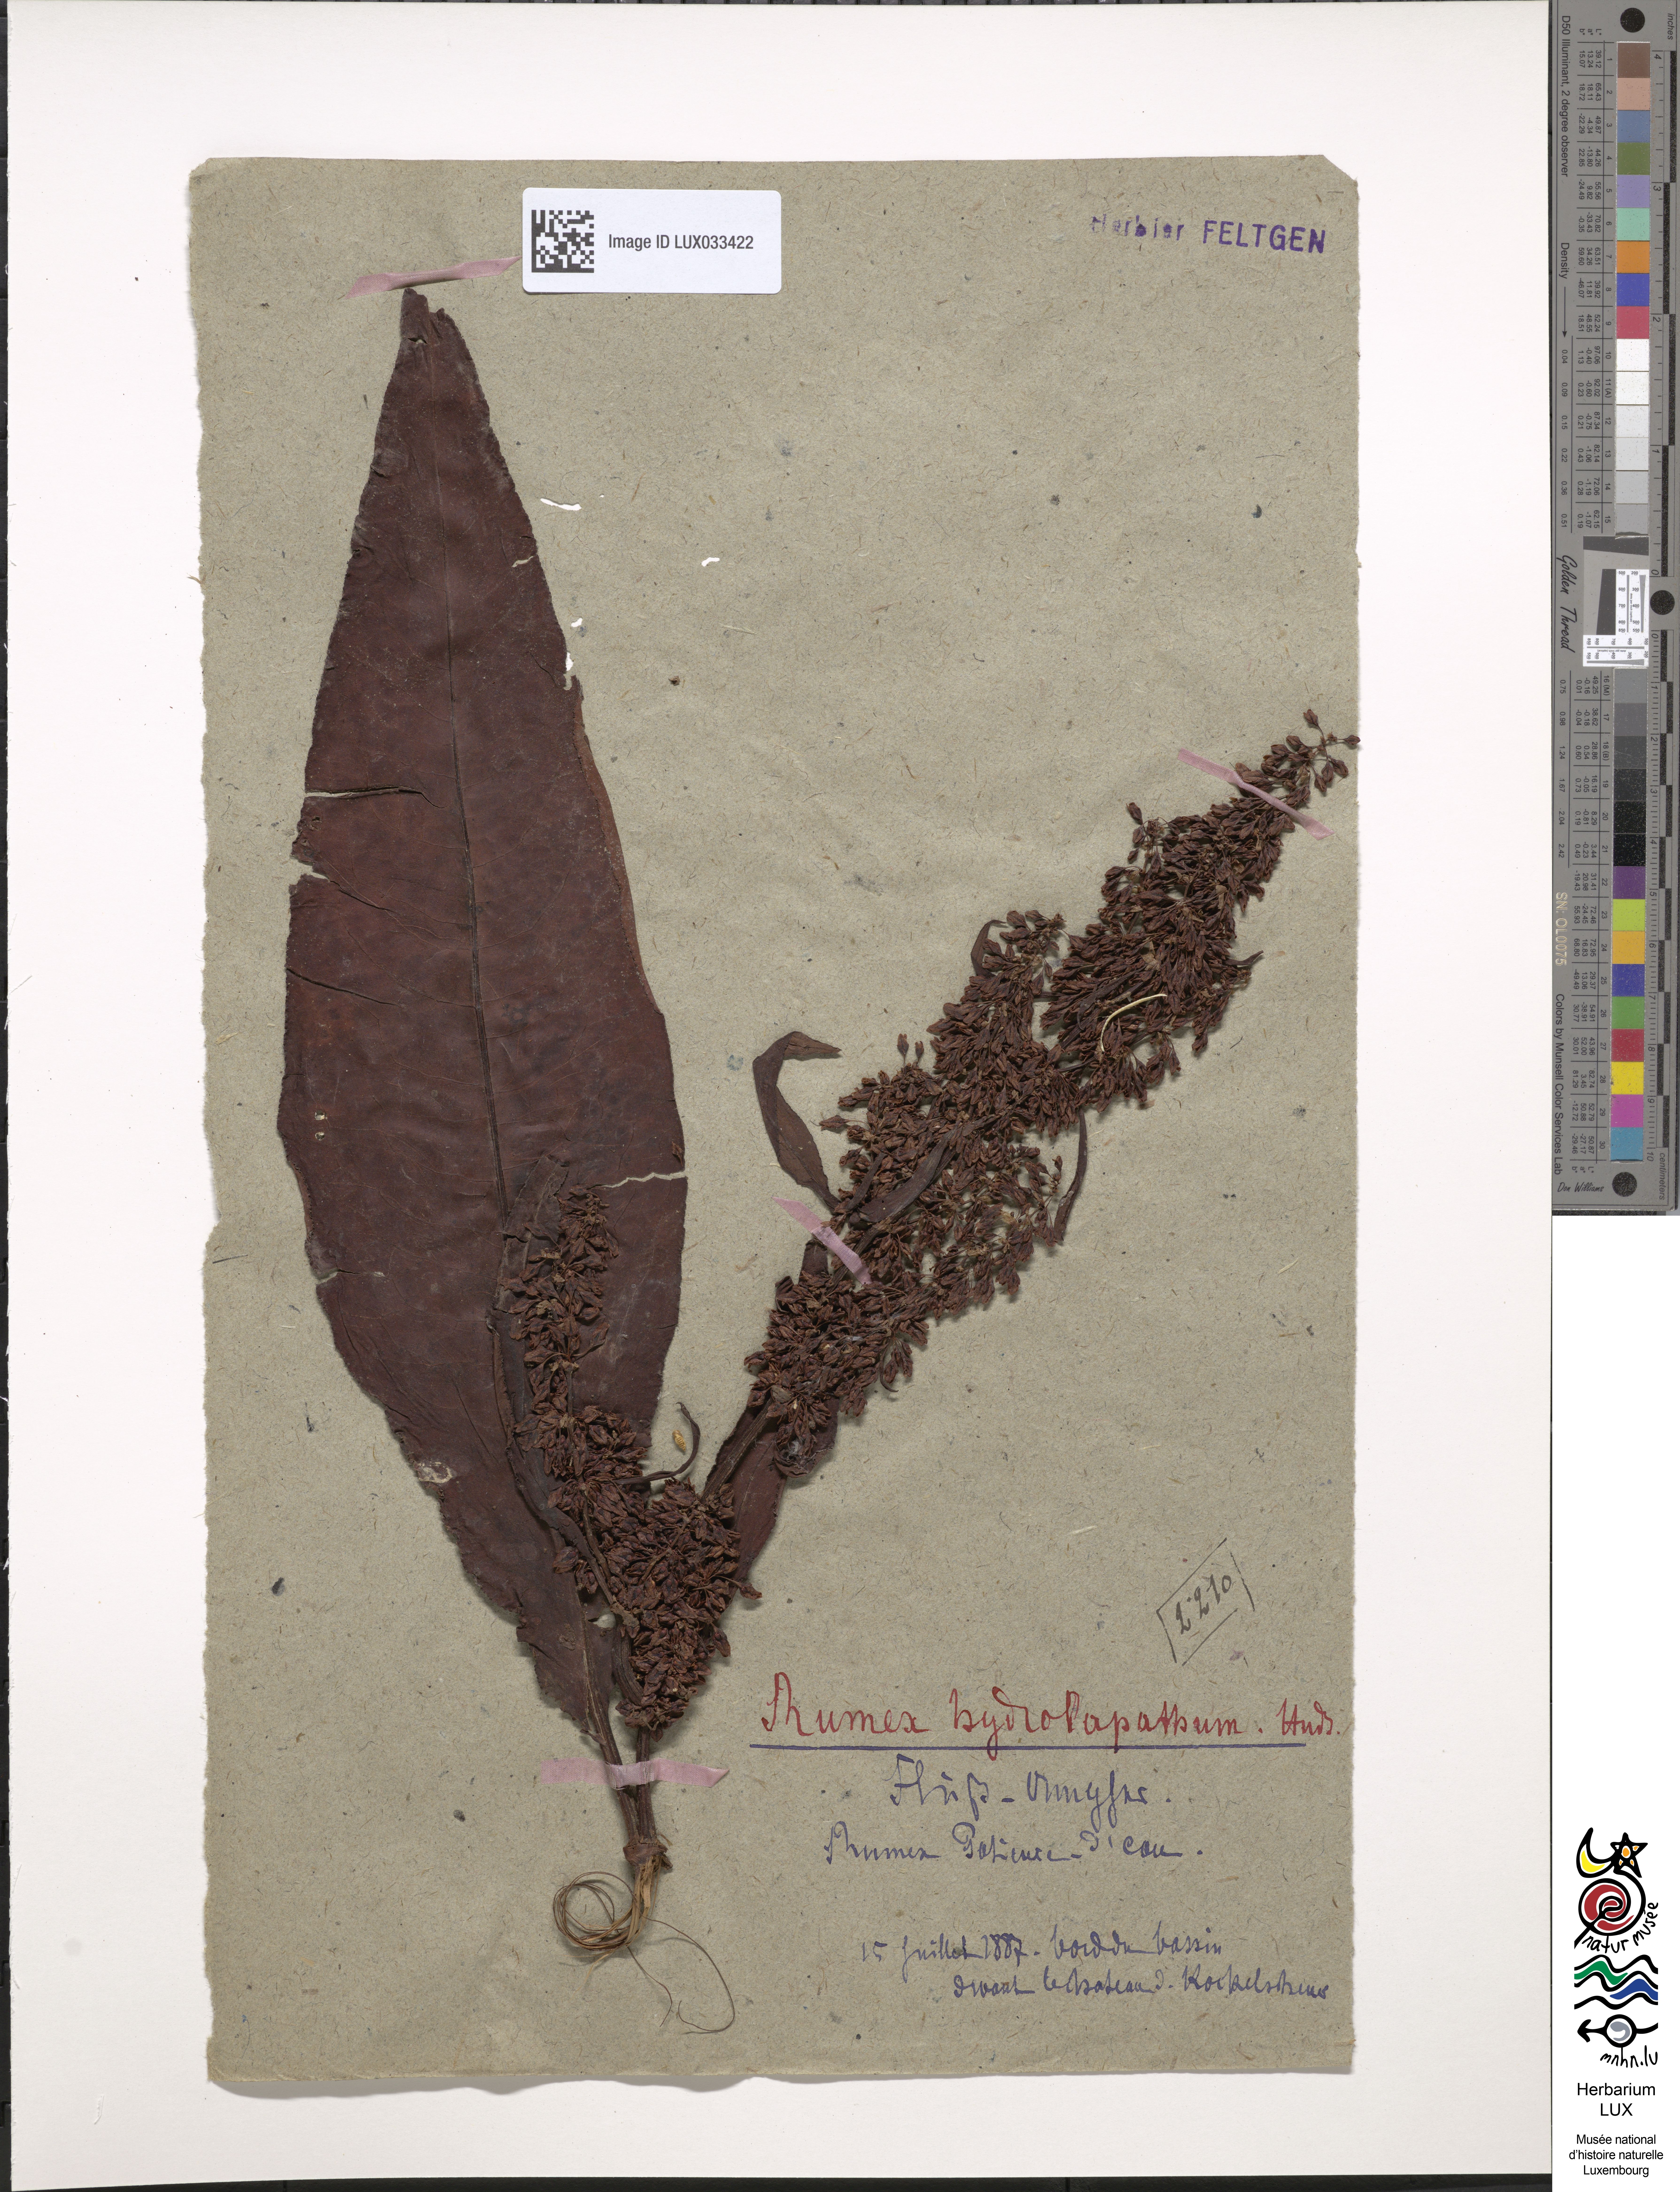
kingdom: Plantae
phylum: Tracheophyta
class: Magnoliopsida
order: Caryophyllales
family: Polygonaceae
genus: Rumex
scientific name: Rumex hydrolapathum
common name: Water dock
